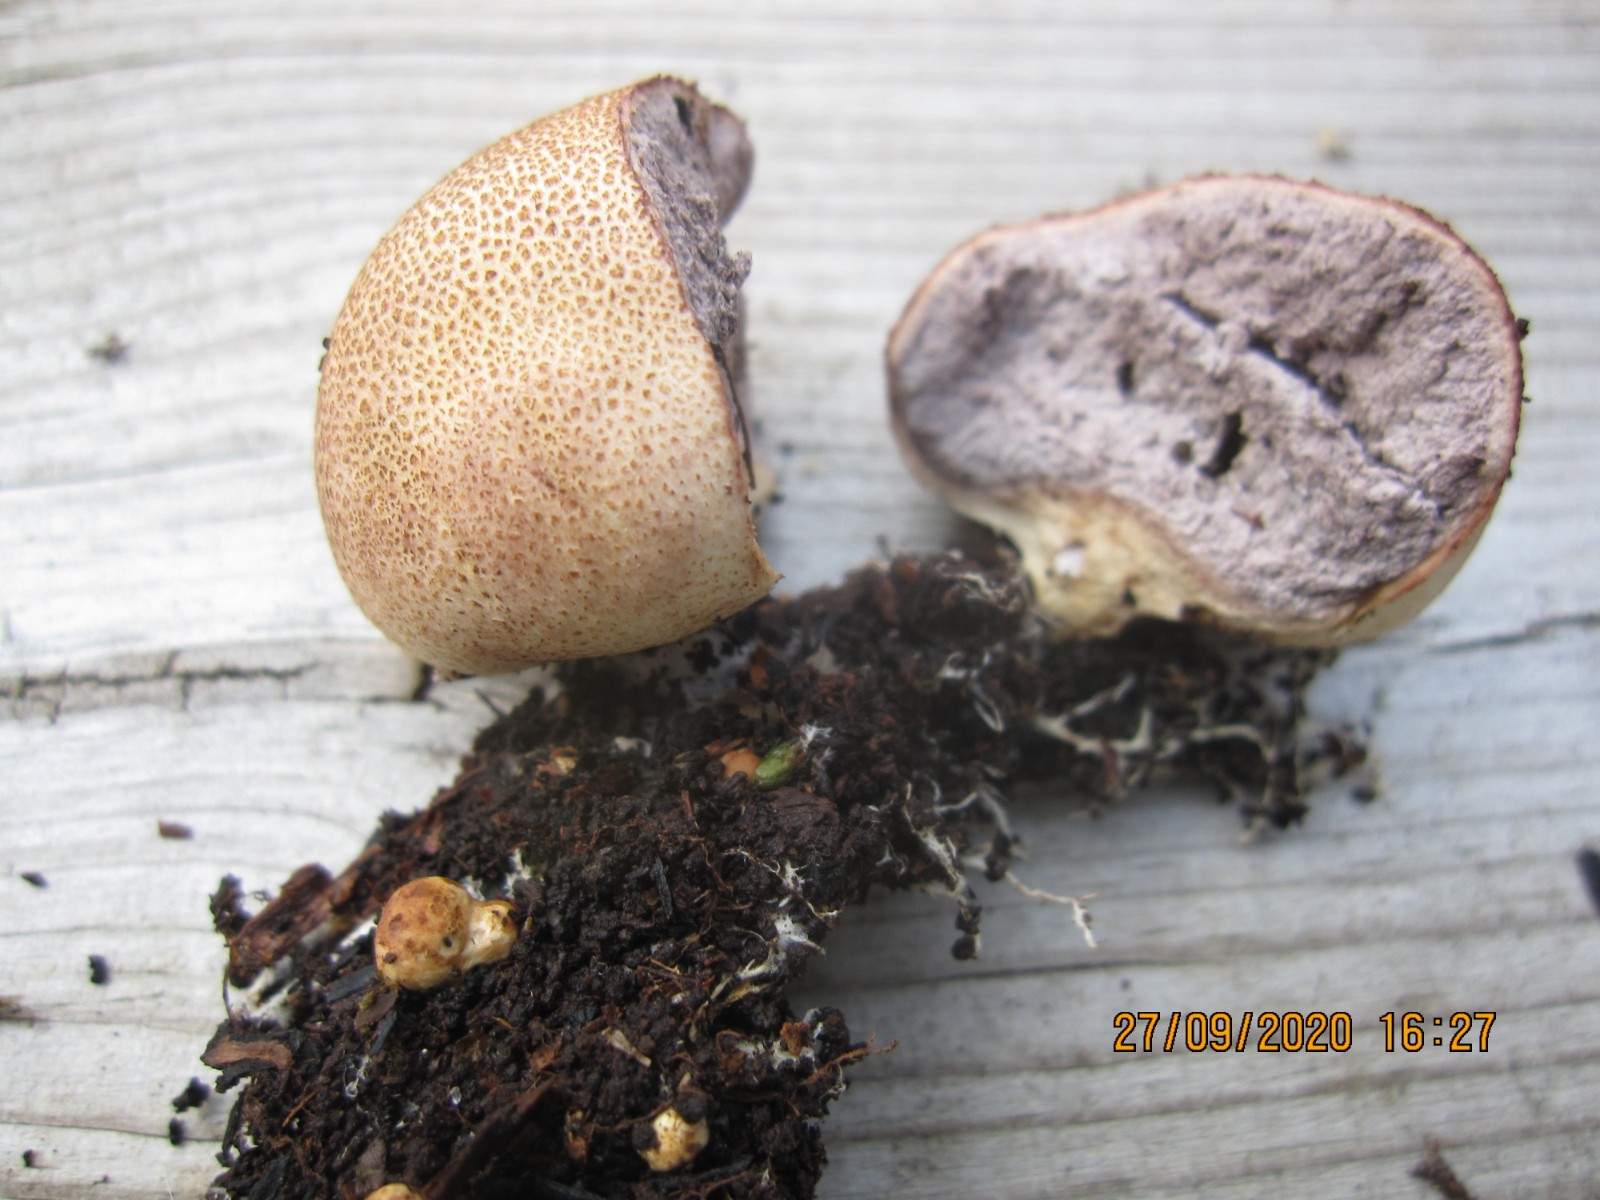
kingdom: Fungi
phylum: Basidiomycota
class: Agaricomycetes
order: Boletales
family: Sclerodermataceae
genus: Scleroderma
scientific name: Scleroderma areolatum
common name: plettet bruskbold
